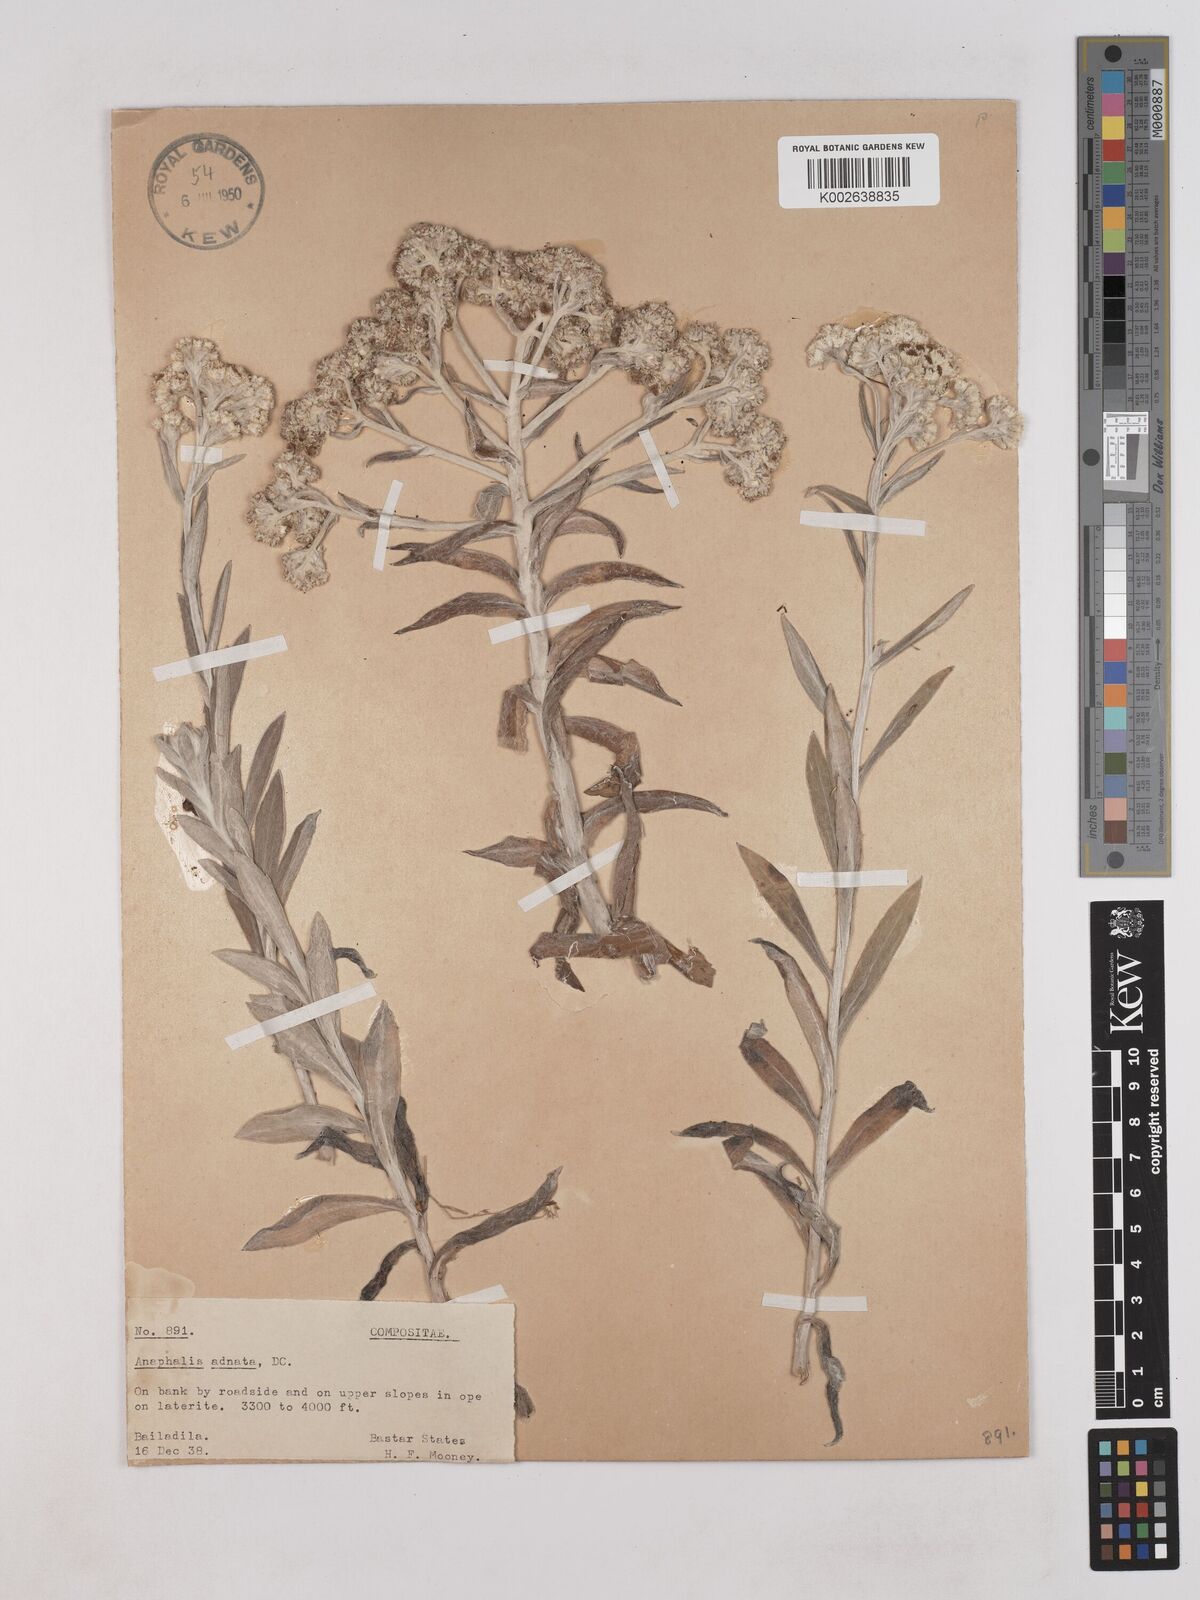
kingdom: Plantae
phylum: Tracheophyta
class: Magnoliopsida
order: Asterales
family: Asteraceae
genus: Pseudognaphalium
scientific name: Pseudognaphalium adnatum
